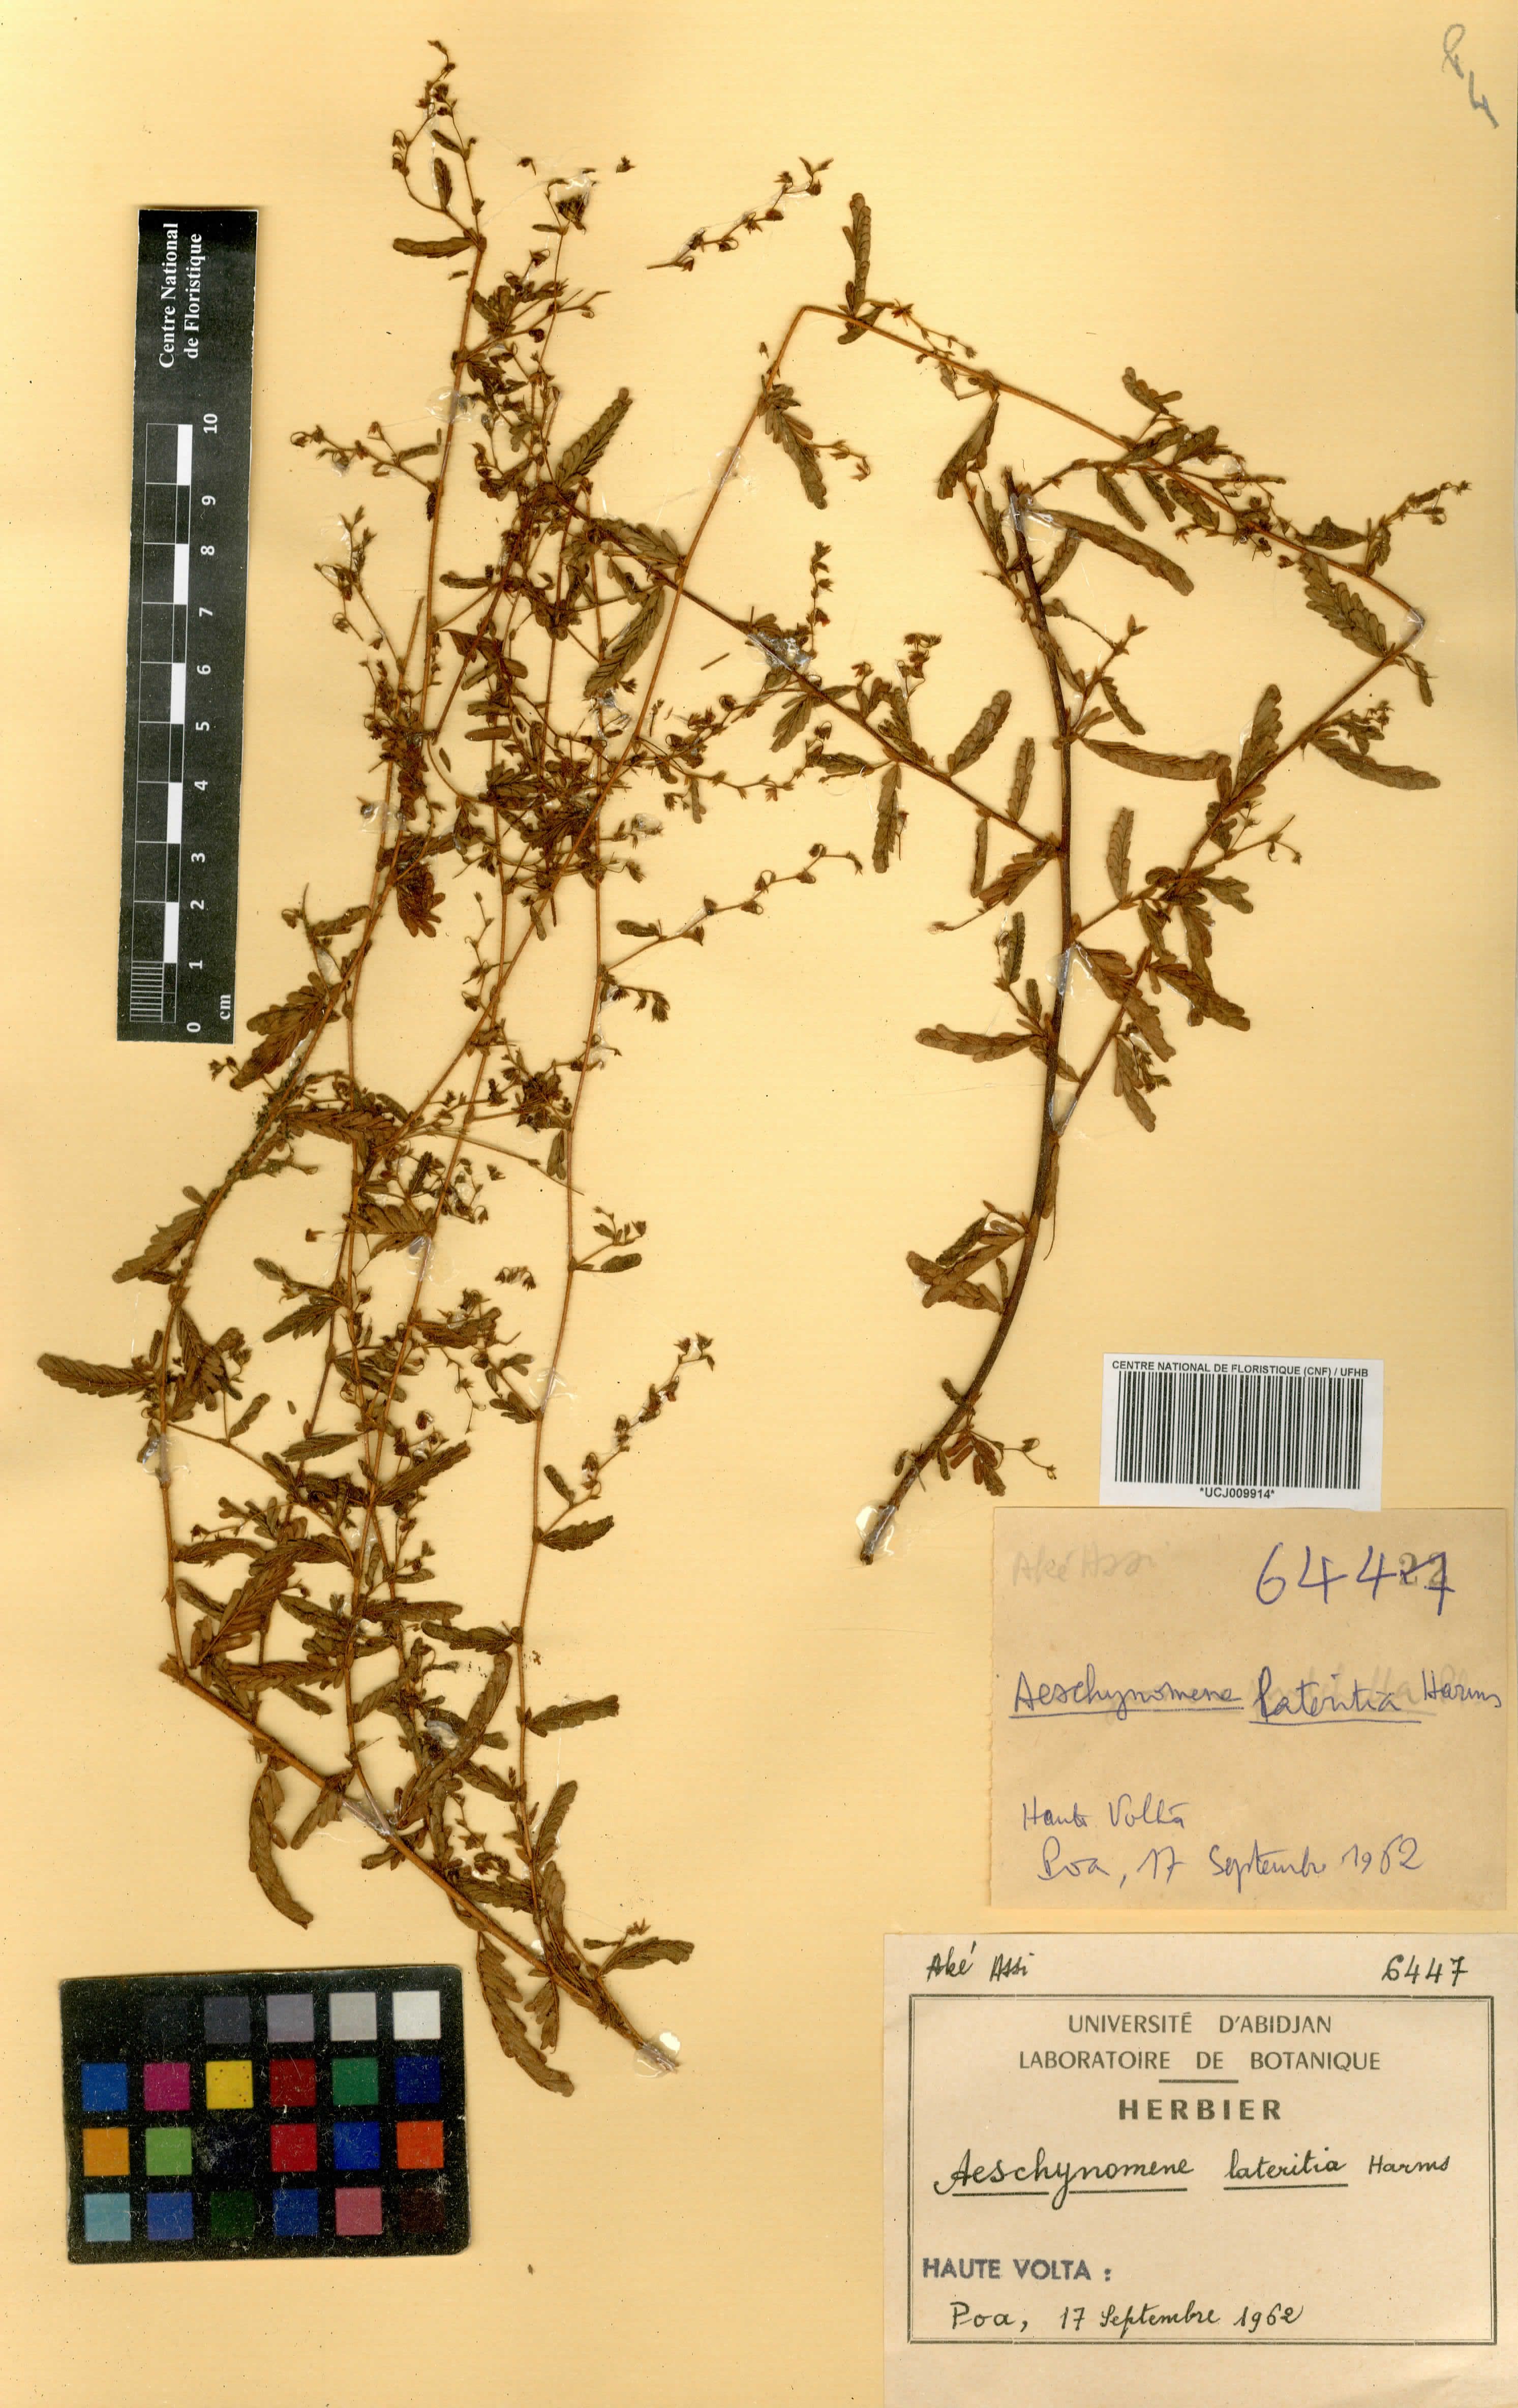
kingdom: Plantae
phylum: Tracheophyta
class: Magnoliopsida
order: Fabales
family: Fabaceae
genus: Aeschynomene
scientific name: Aeschynomene lateritia
